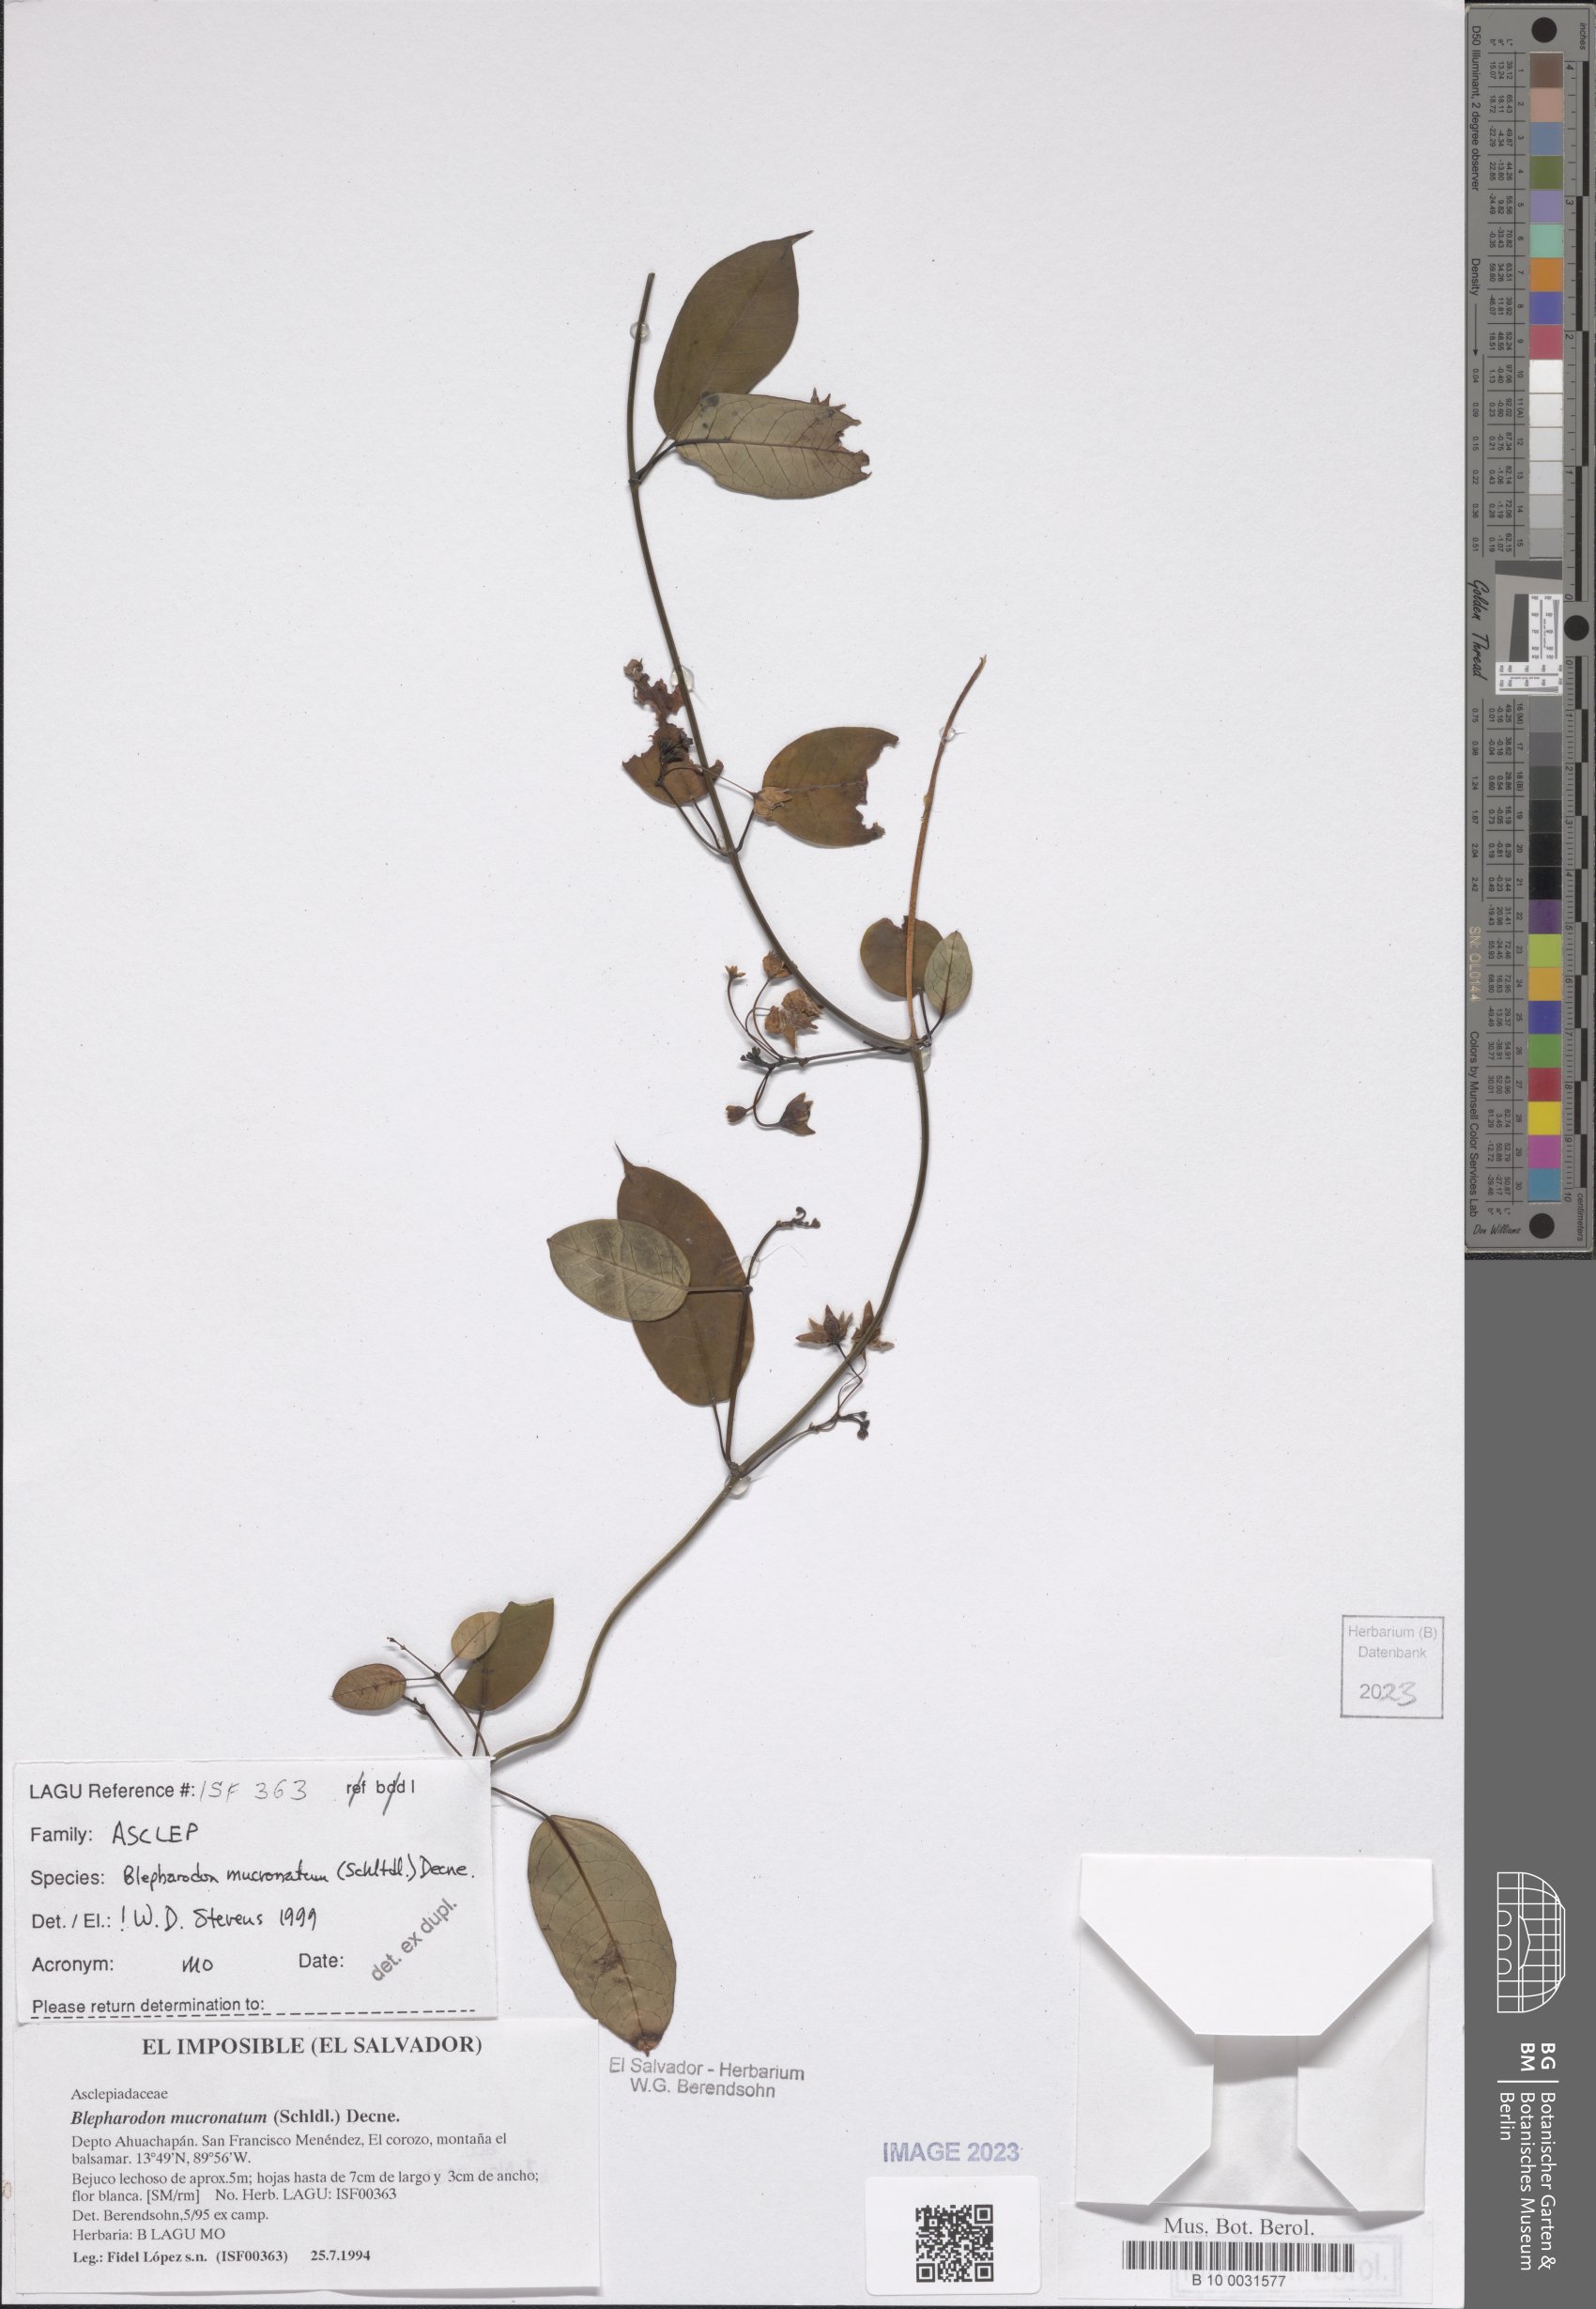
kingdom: Plantae
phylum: Tracheophyta
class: Magnoliopsida
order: Gentianales
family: Apocynaceae
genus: Vailia
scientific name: Vailia anomala
